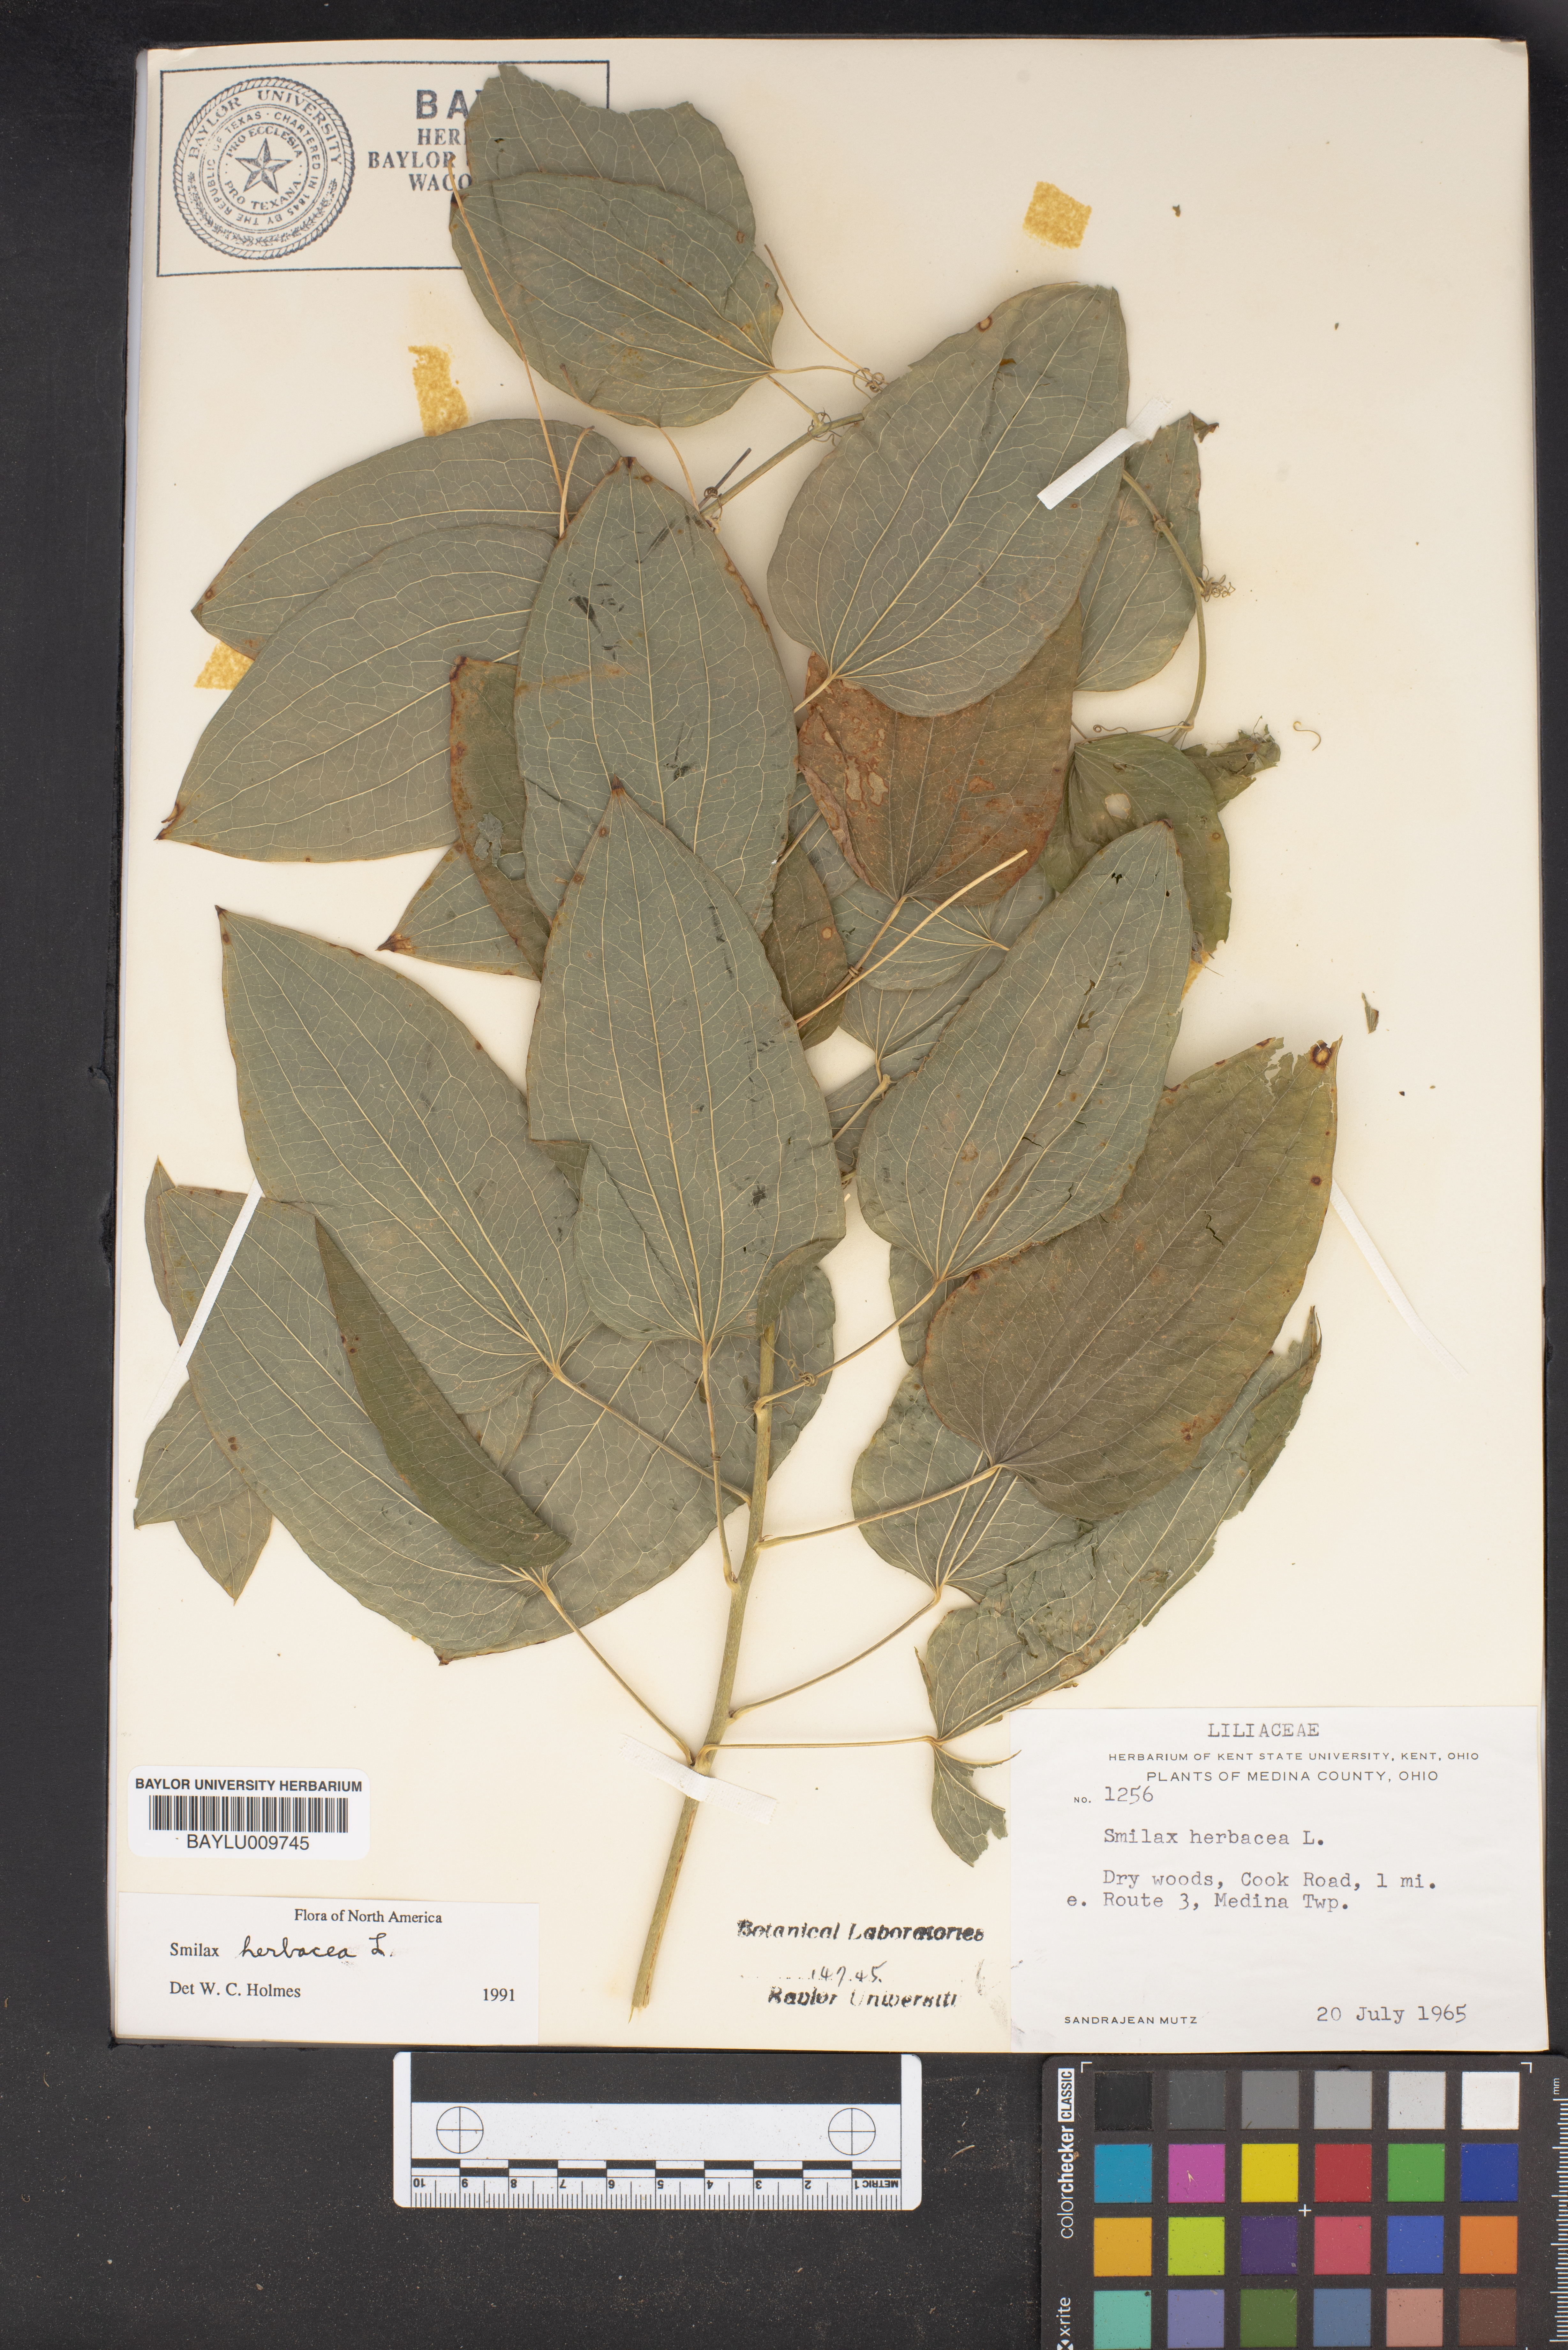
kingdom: Plantae
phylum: Tracheophyta
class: Liliopsida
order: Liliales
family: Smilacaceae
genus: Smilax
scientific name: Smilax herbacea
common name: Jacob's-ladder
